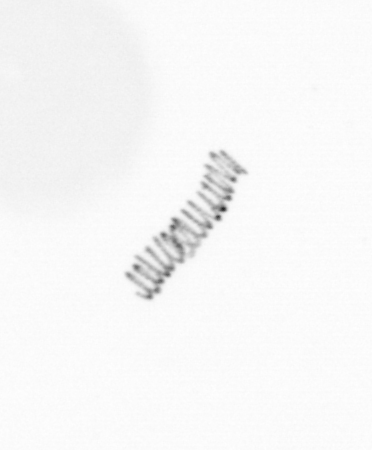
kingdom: Chromista
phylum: Ochrophyta
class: Bacillariophyceae
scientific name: Bacillariophyceae
